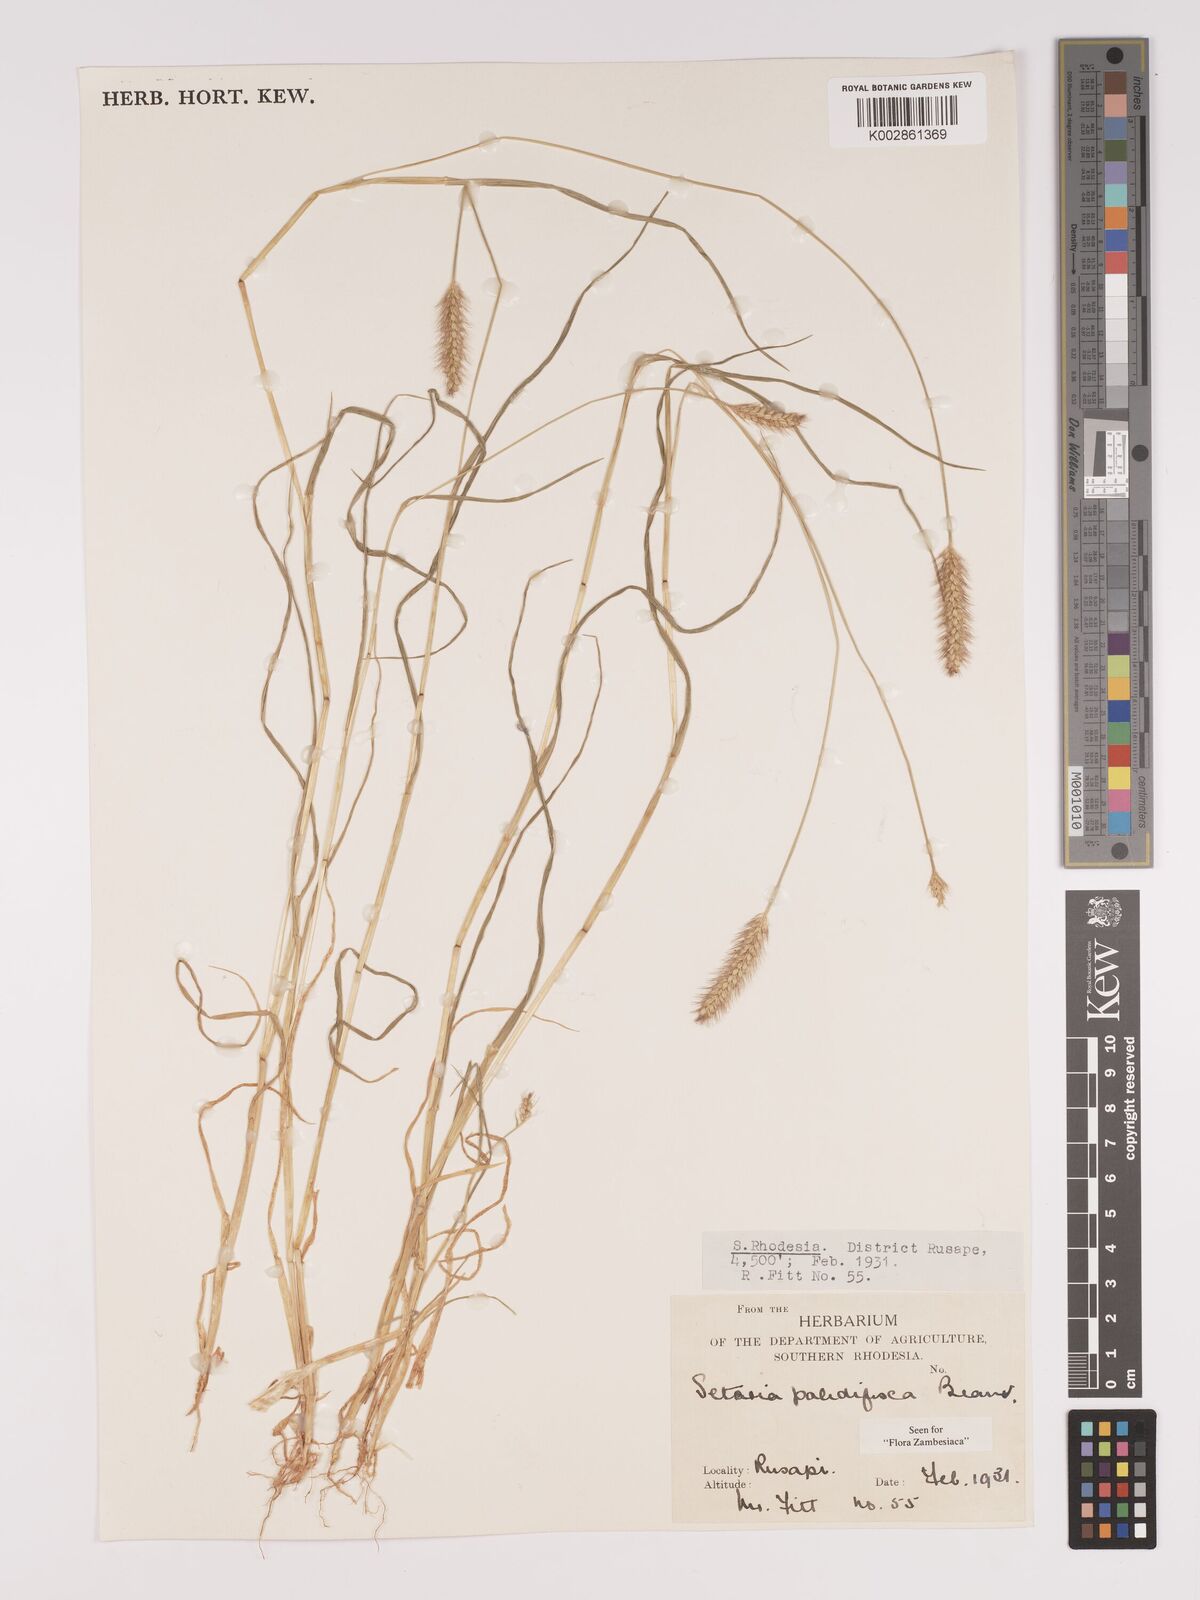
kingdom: Plantae
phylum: Tracheophyta
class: Liliopsida
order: Poales
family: Poaceae
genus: Setaria
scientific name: Setaria pumila
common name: Yellow bristle-grass
